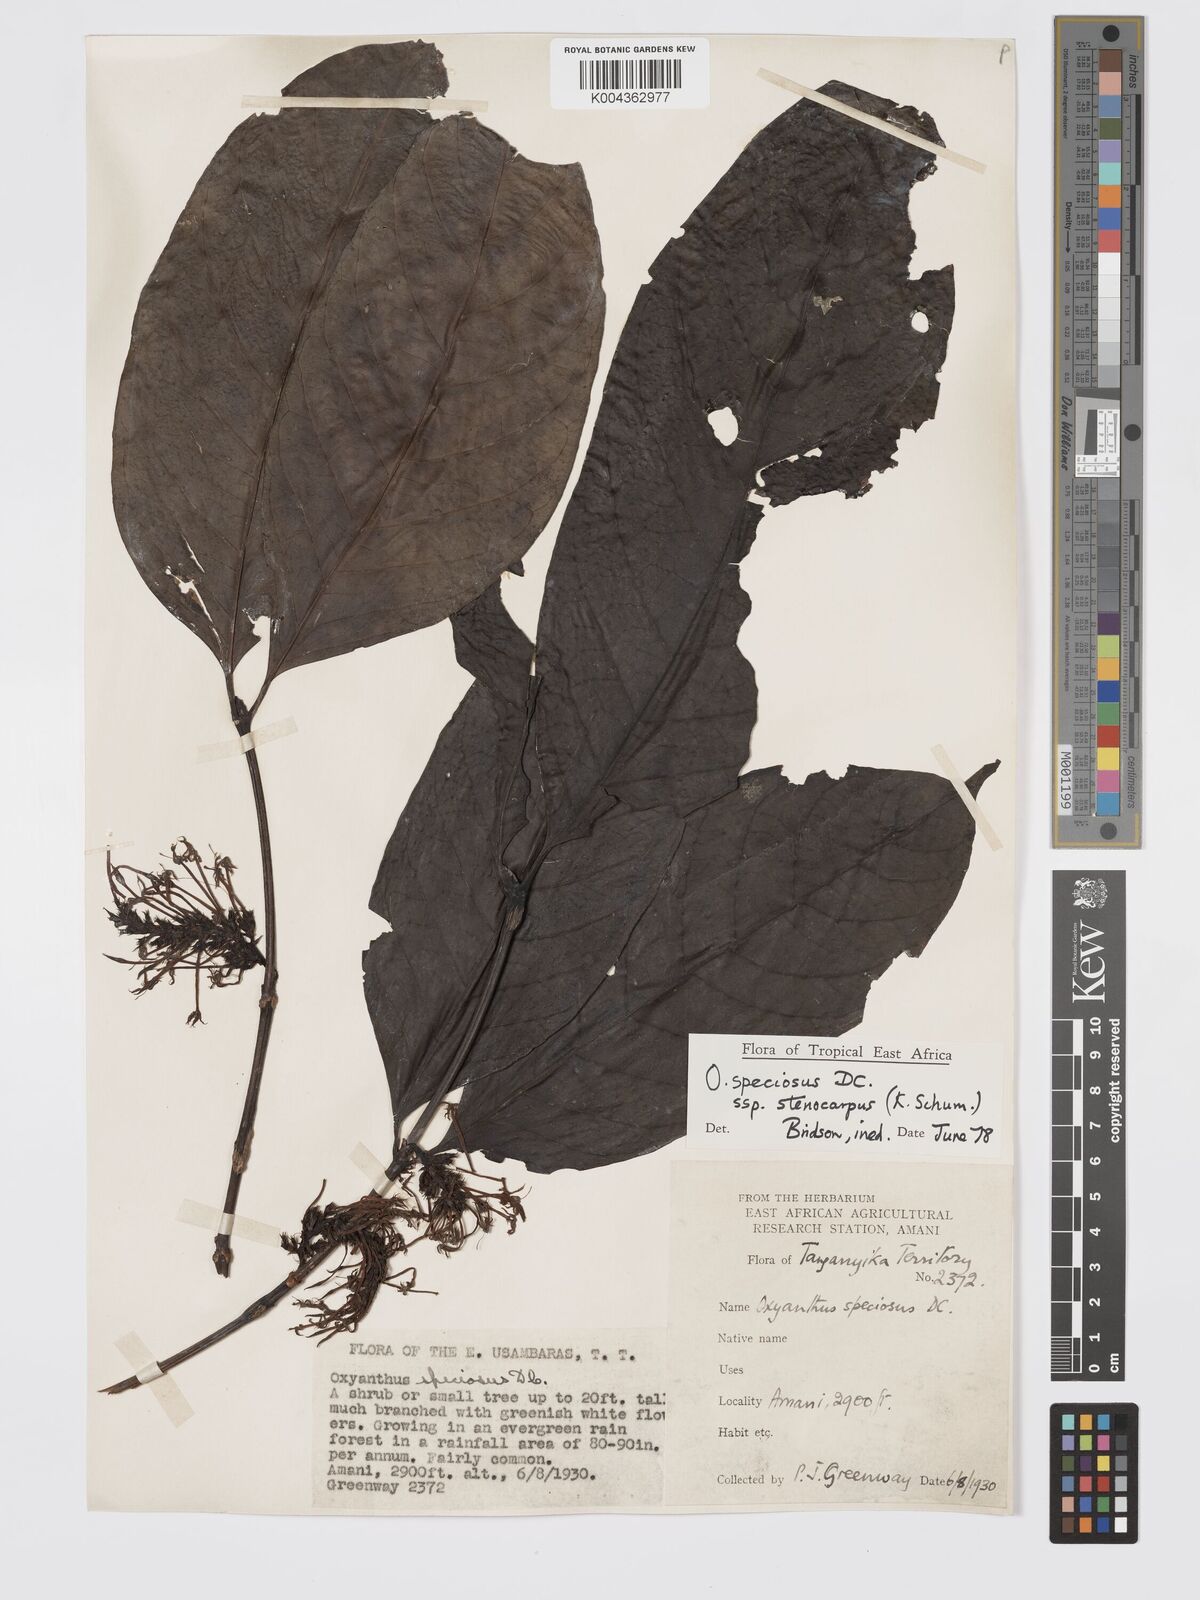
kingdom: Plantae
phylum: Tracheophyta
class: Magnoliopsida
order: Gentianales
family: Rubiaceae
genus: Oxyanthus
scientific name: Oxyanthus speciosus
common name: Whipstick loquat
